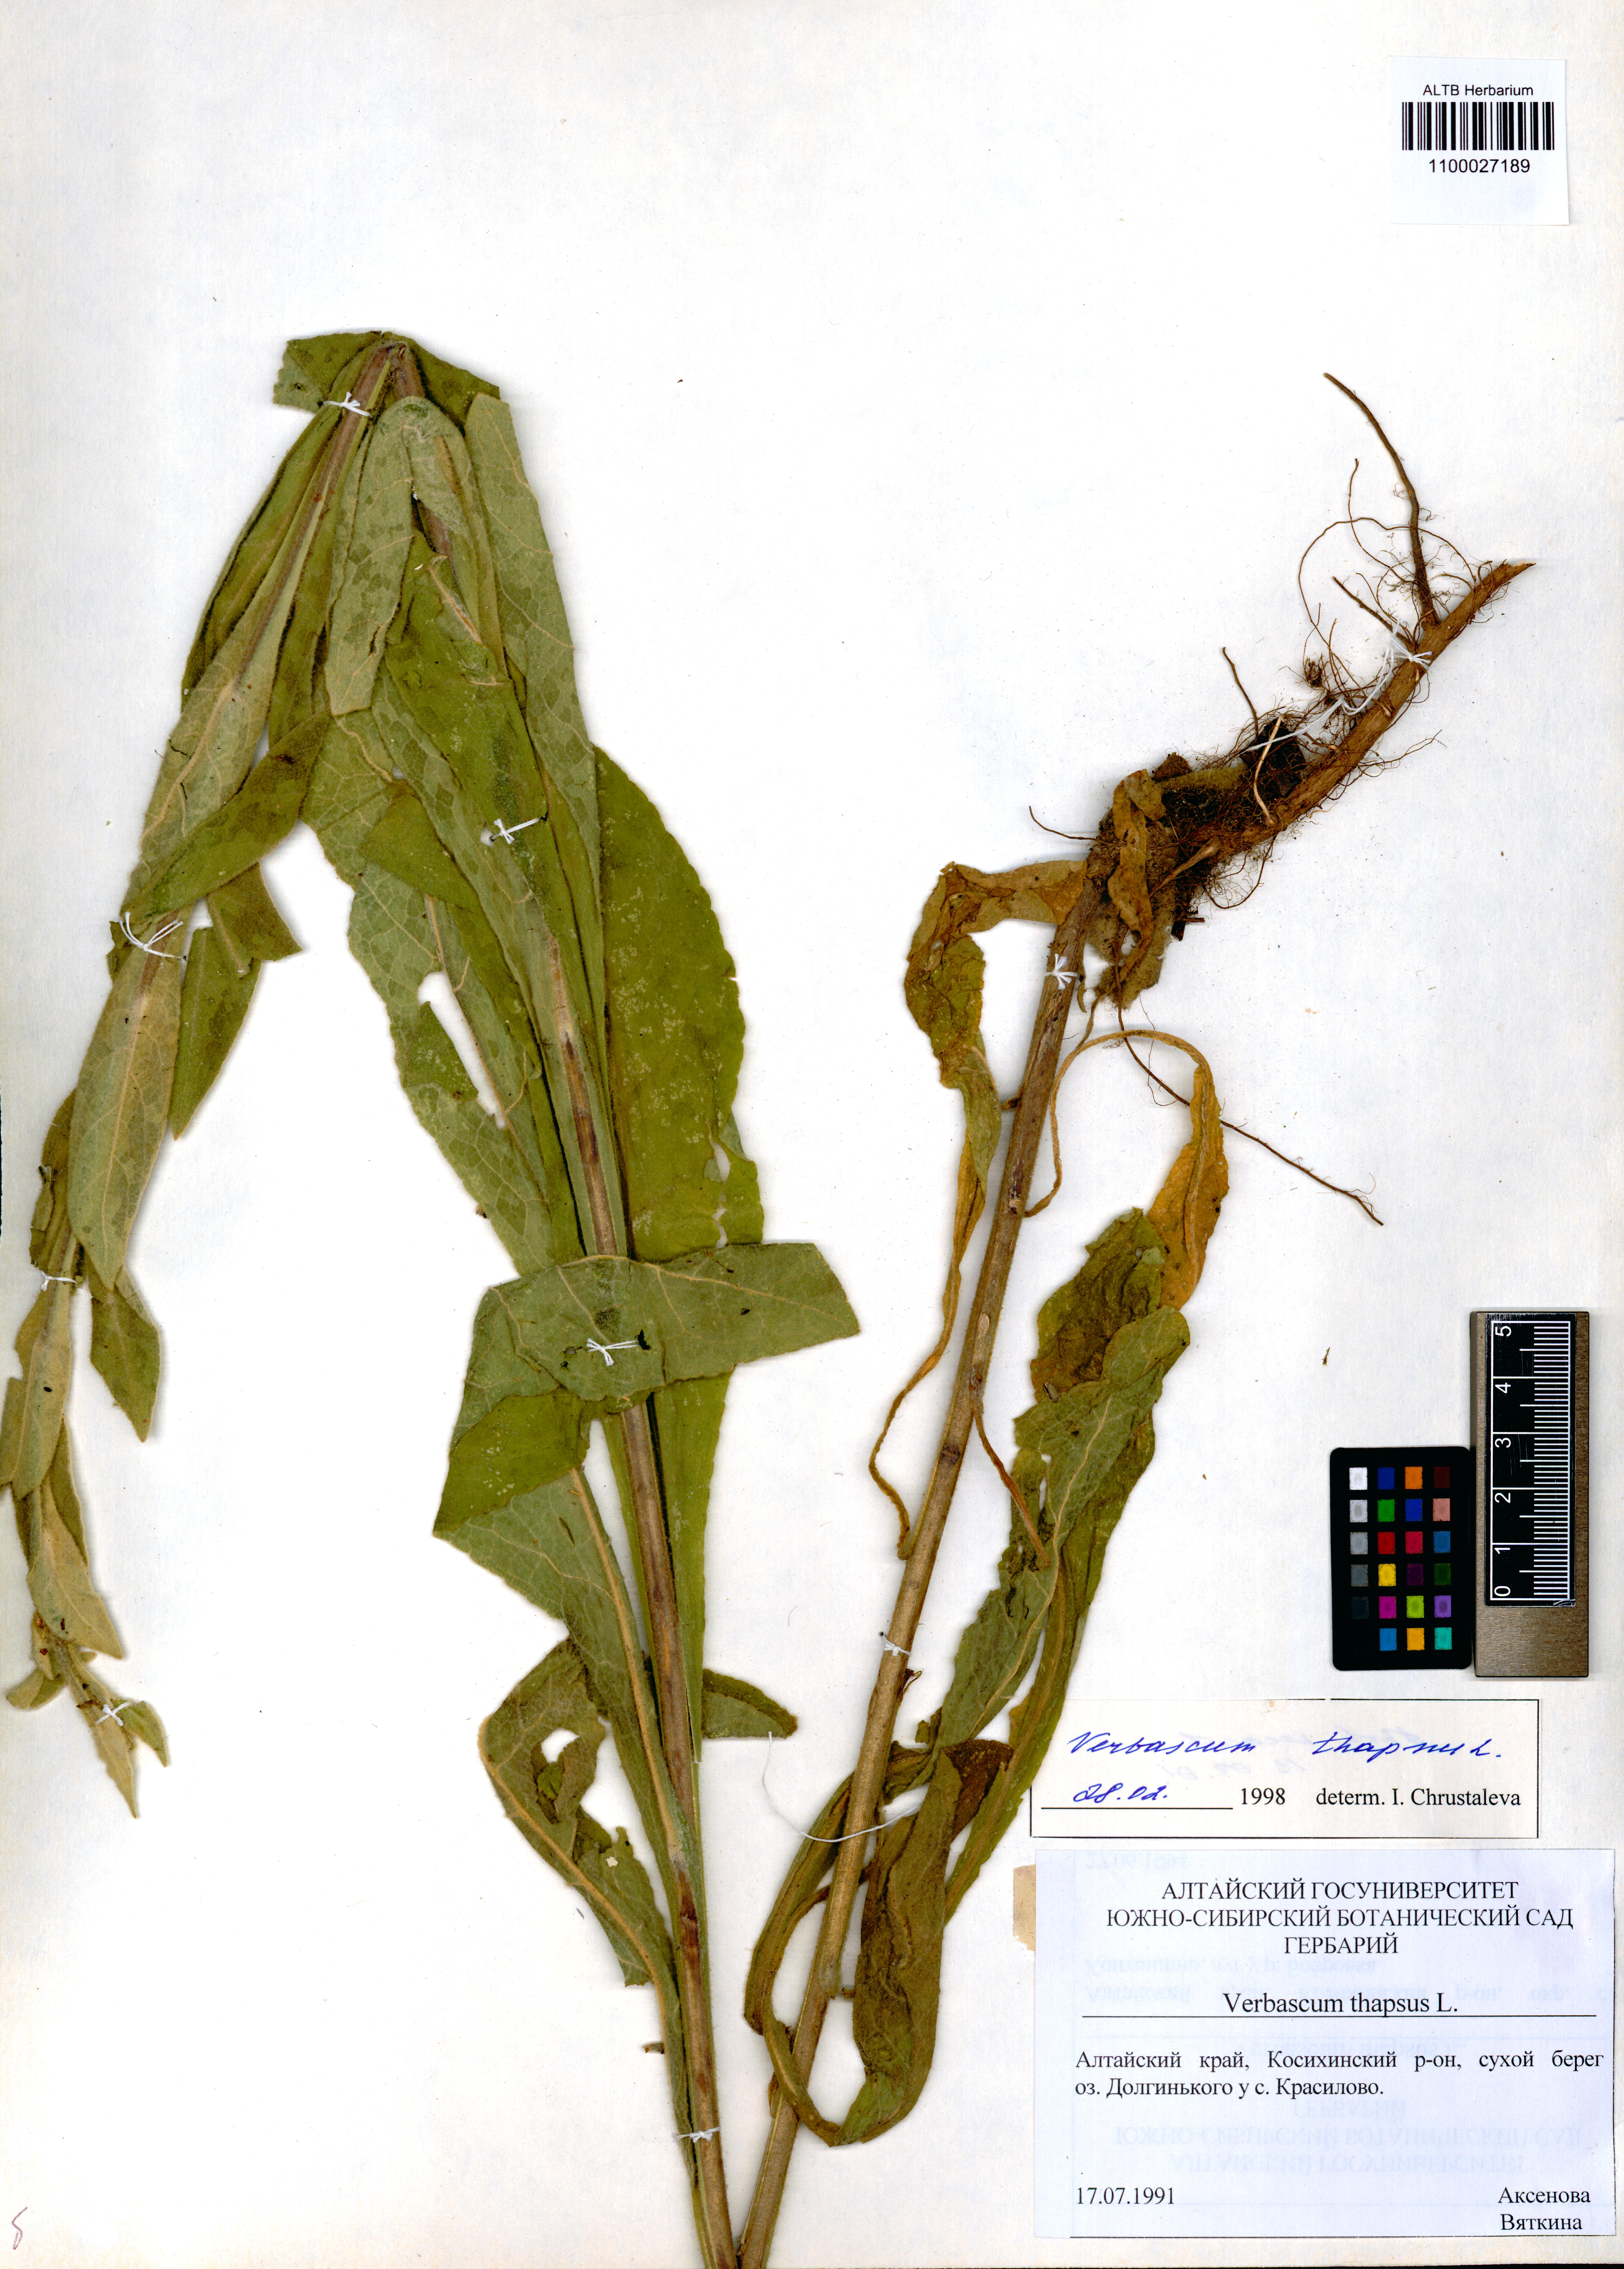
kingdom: Plantae
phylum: Tracheophyta
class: Magnoliopsida
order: Lamiales
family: Scrophulariaceae
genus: Verbascum
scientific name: Verbascum thapsus
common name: Common mullein
